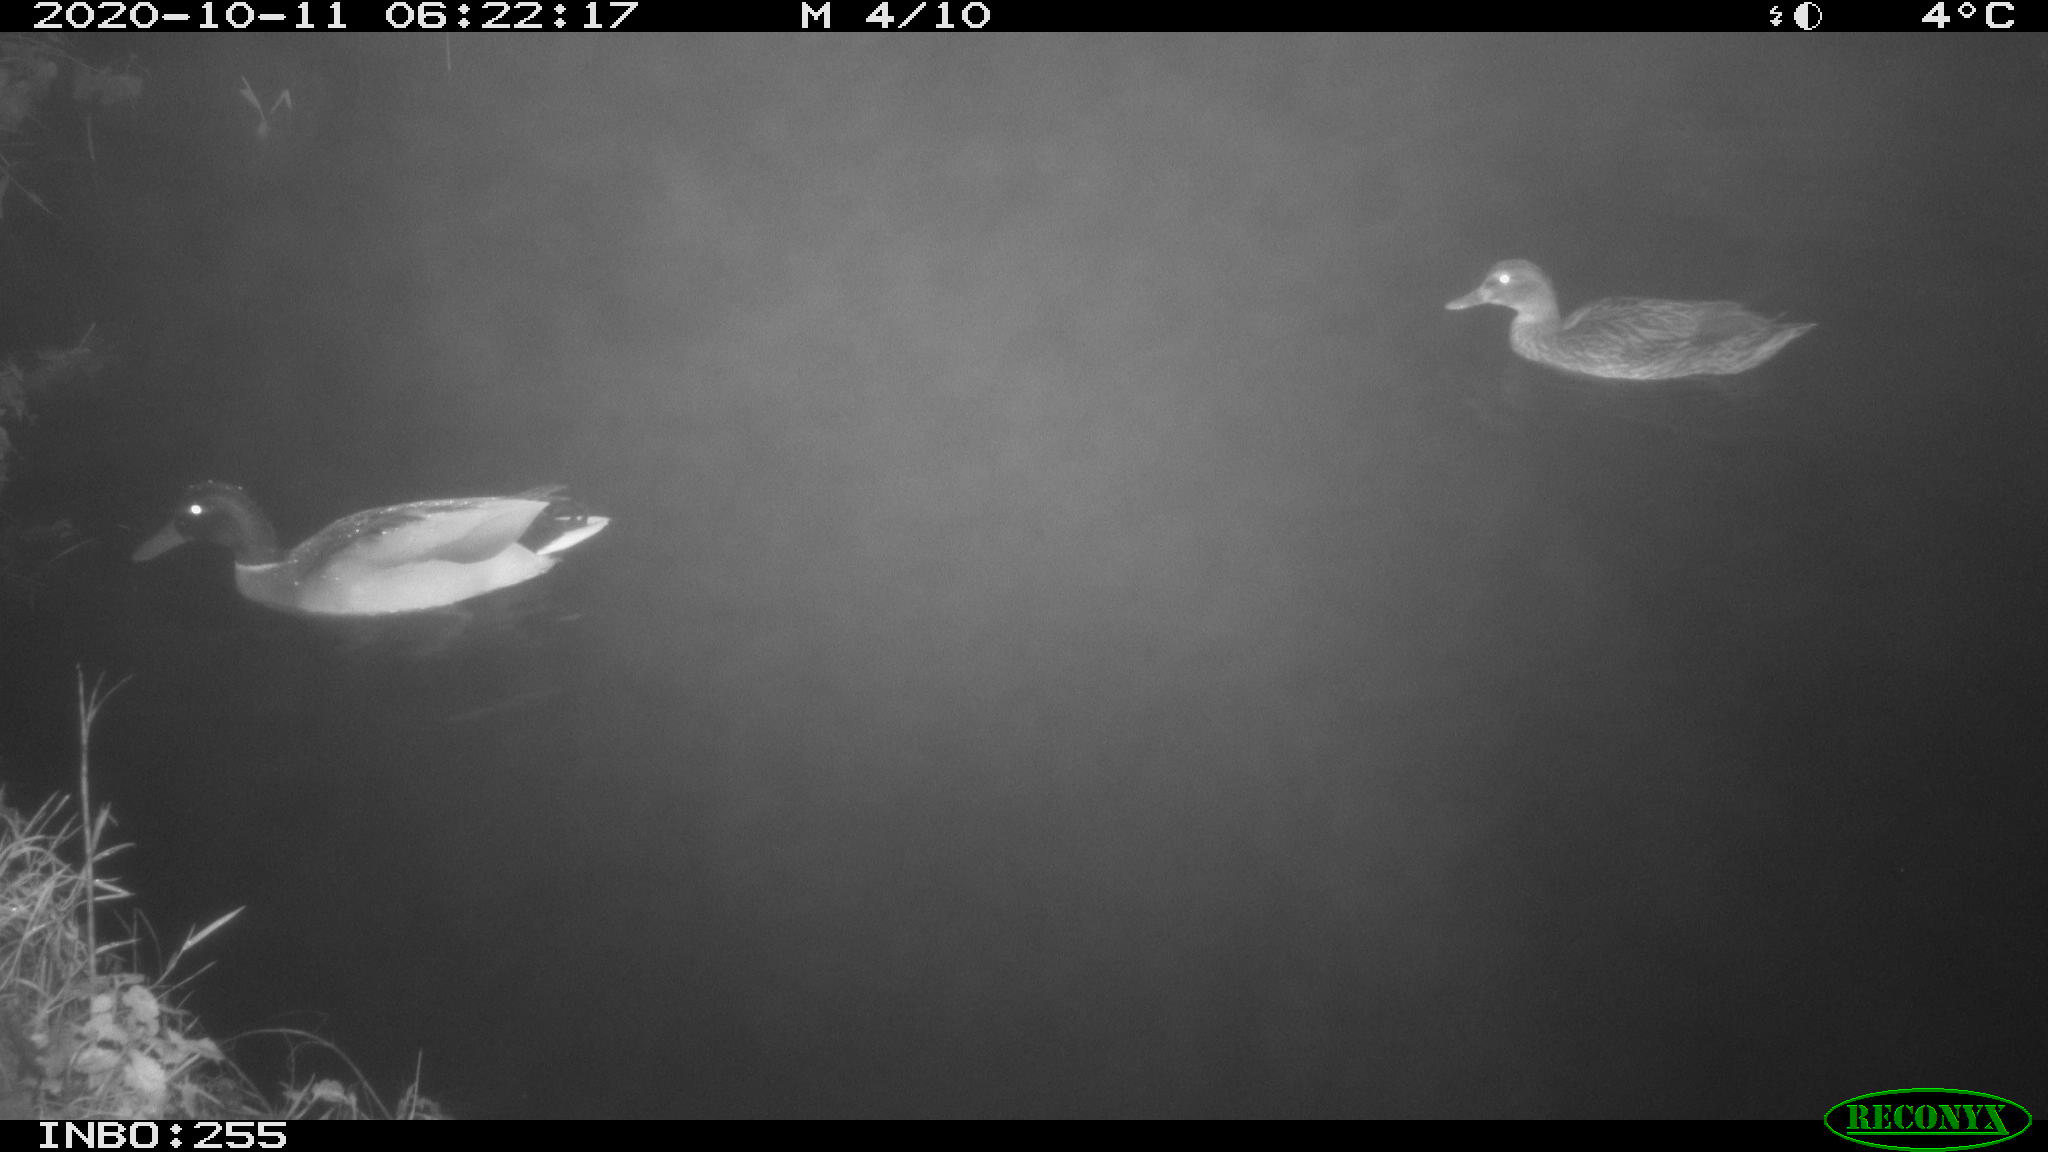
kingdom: Animalia
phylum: Chordata
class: Aves
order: Anseriformes
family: Anatidae
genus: Anas
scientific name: Anas platyrhynchos
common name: Mallard
